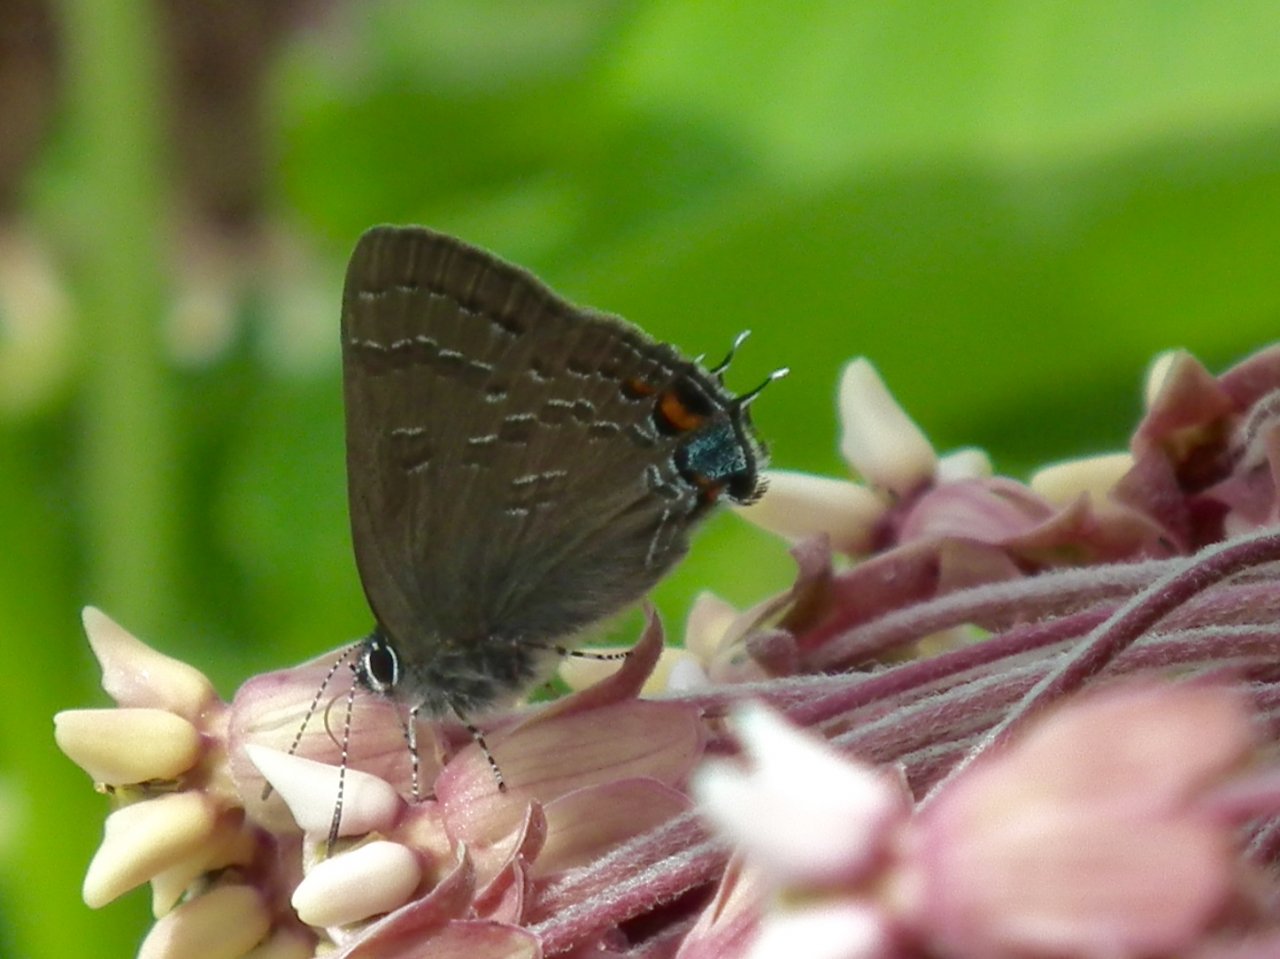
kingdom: Animalia
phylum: Arthropoda
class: Insecta
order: Lepidoptera
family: Lycaenidae
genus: Satyrium
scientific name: Satyrium calanus
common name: Banded Hairstreak
